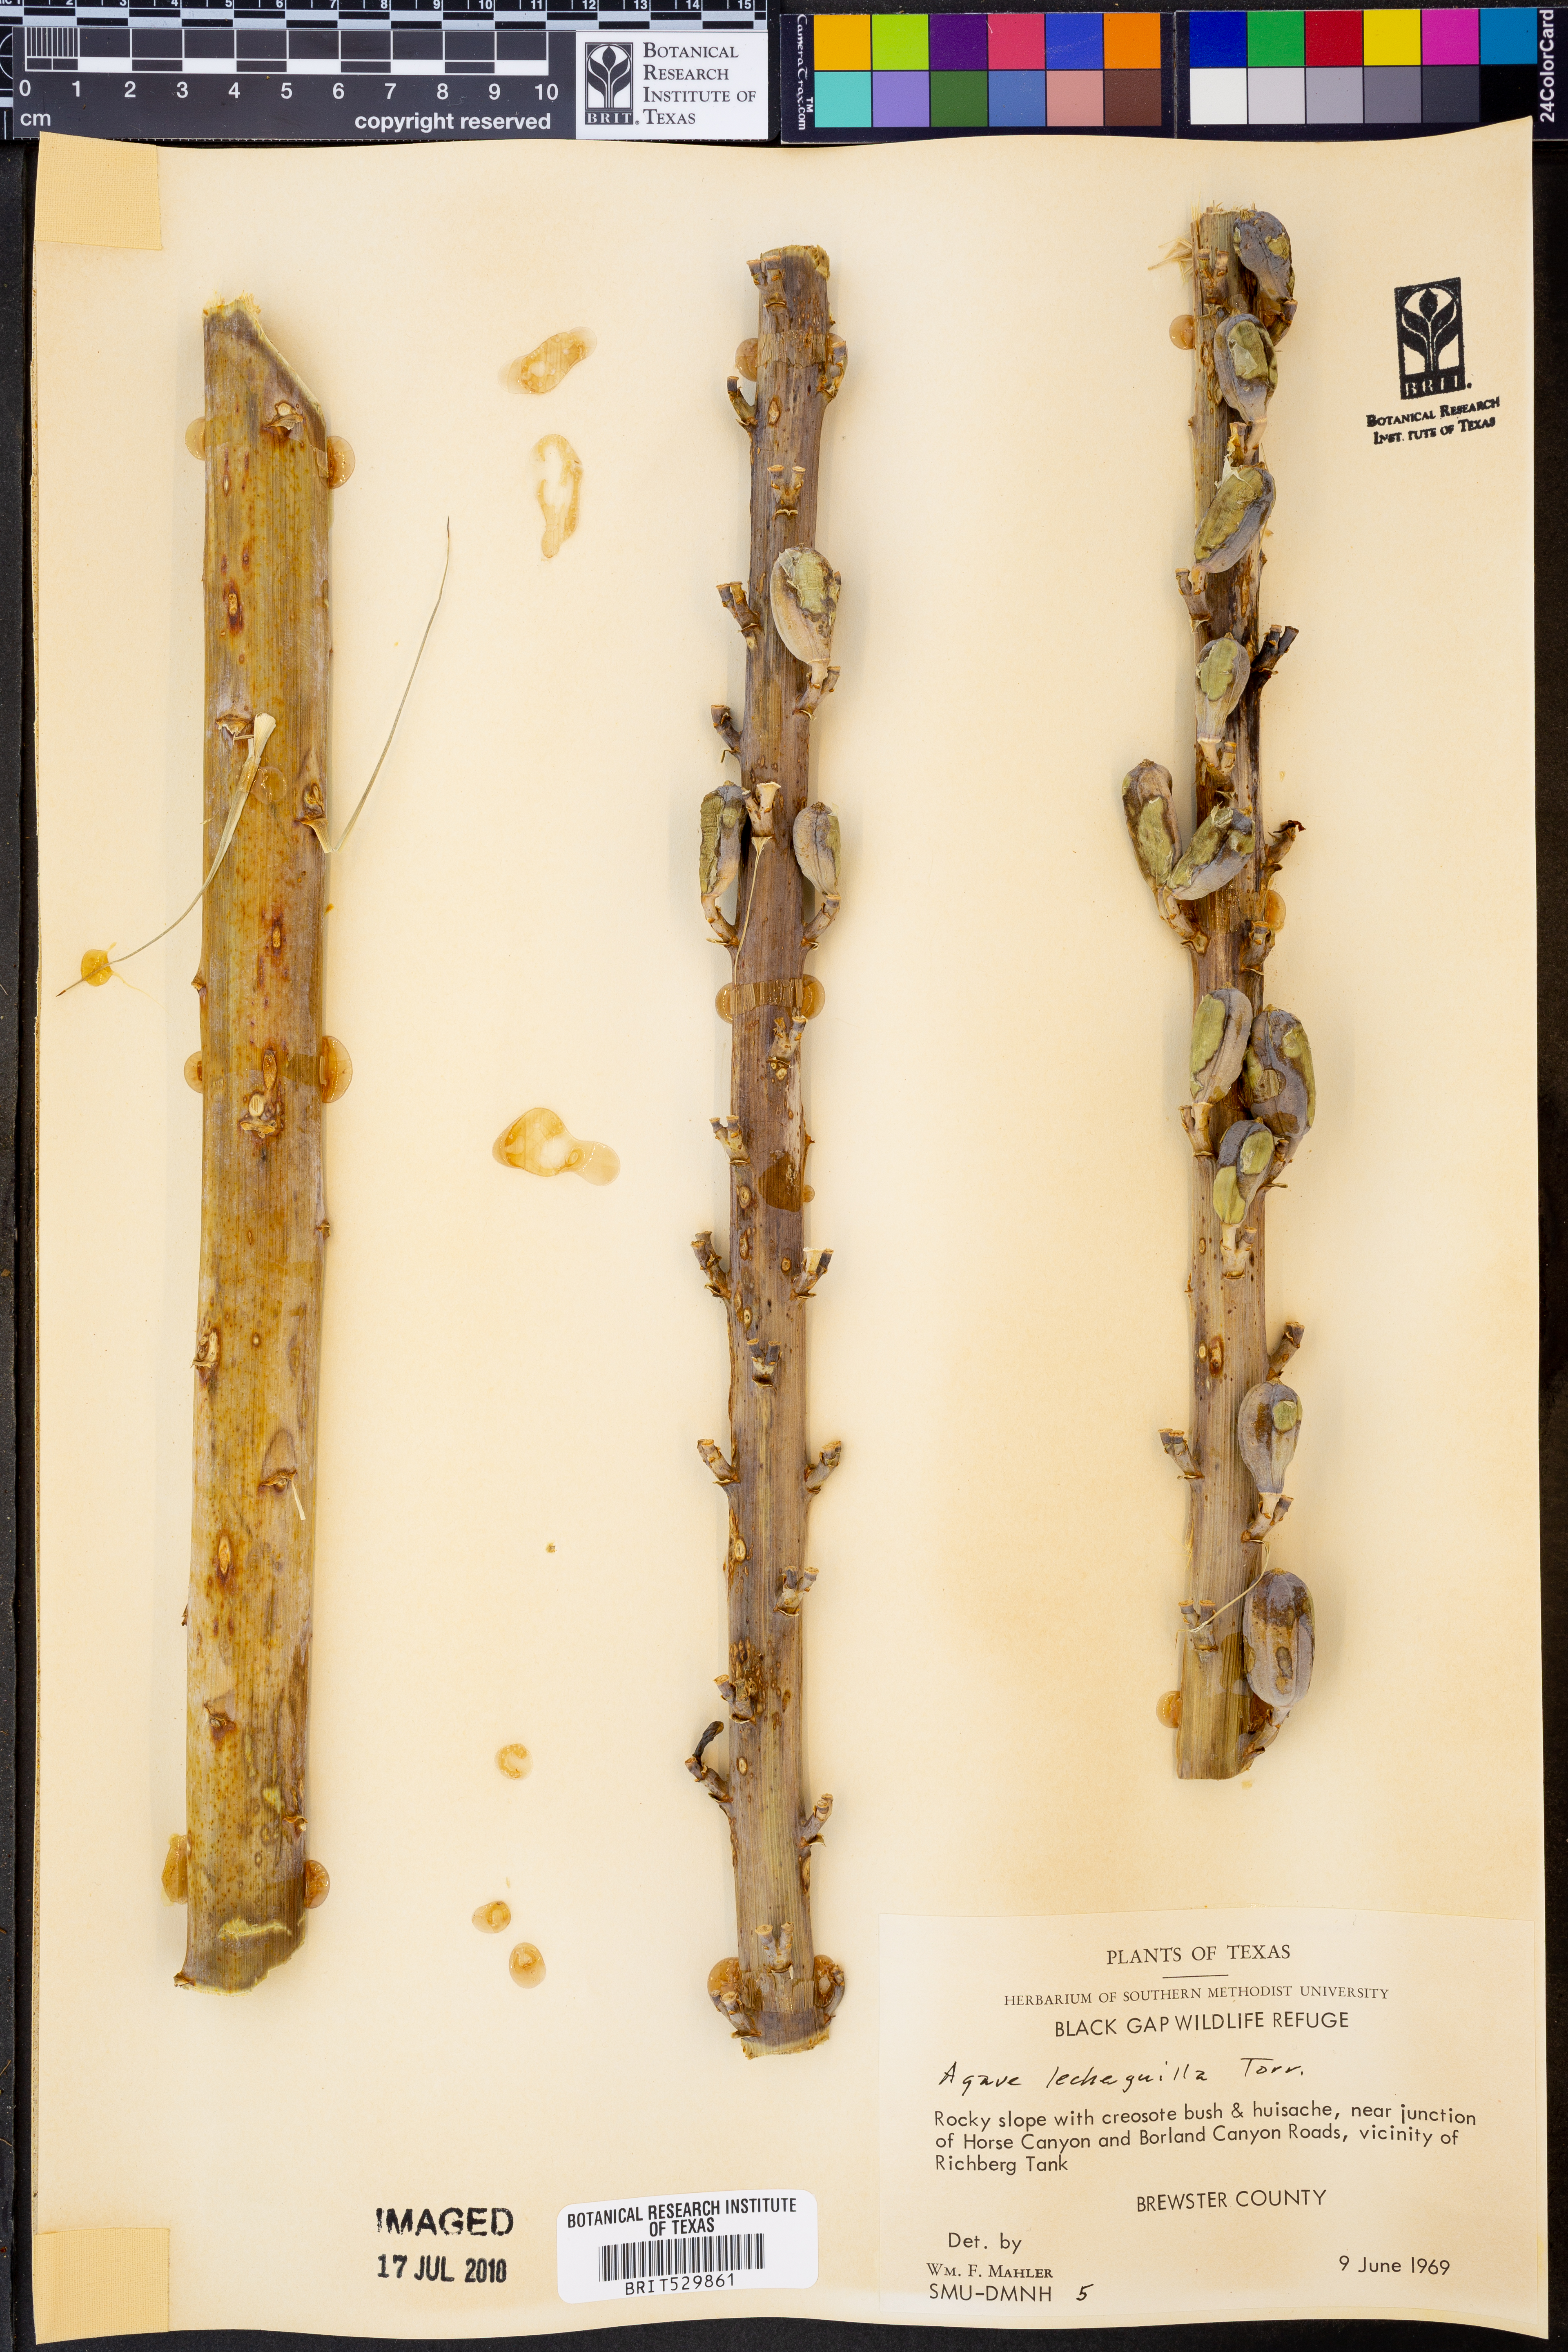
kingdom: Plantae
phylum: Tracheophyta
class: Liliopsida
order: Asparagales
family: Asparagaceae
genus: Agave
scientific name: Agave lecheguilla
